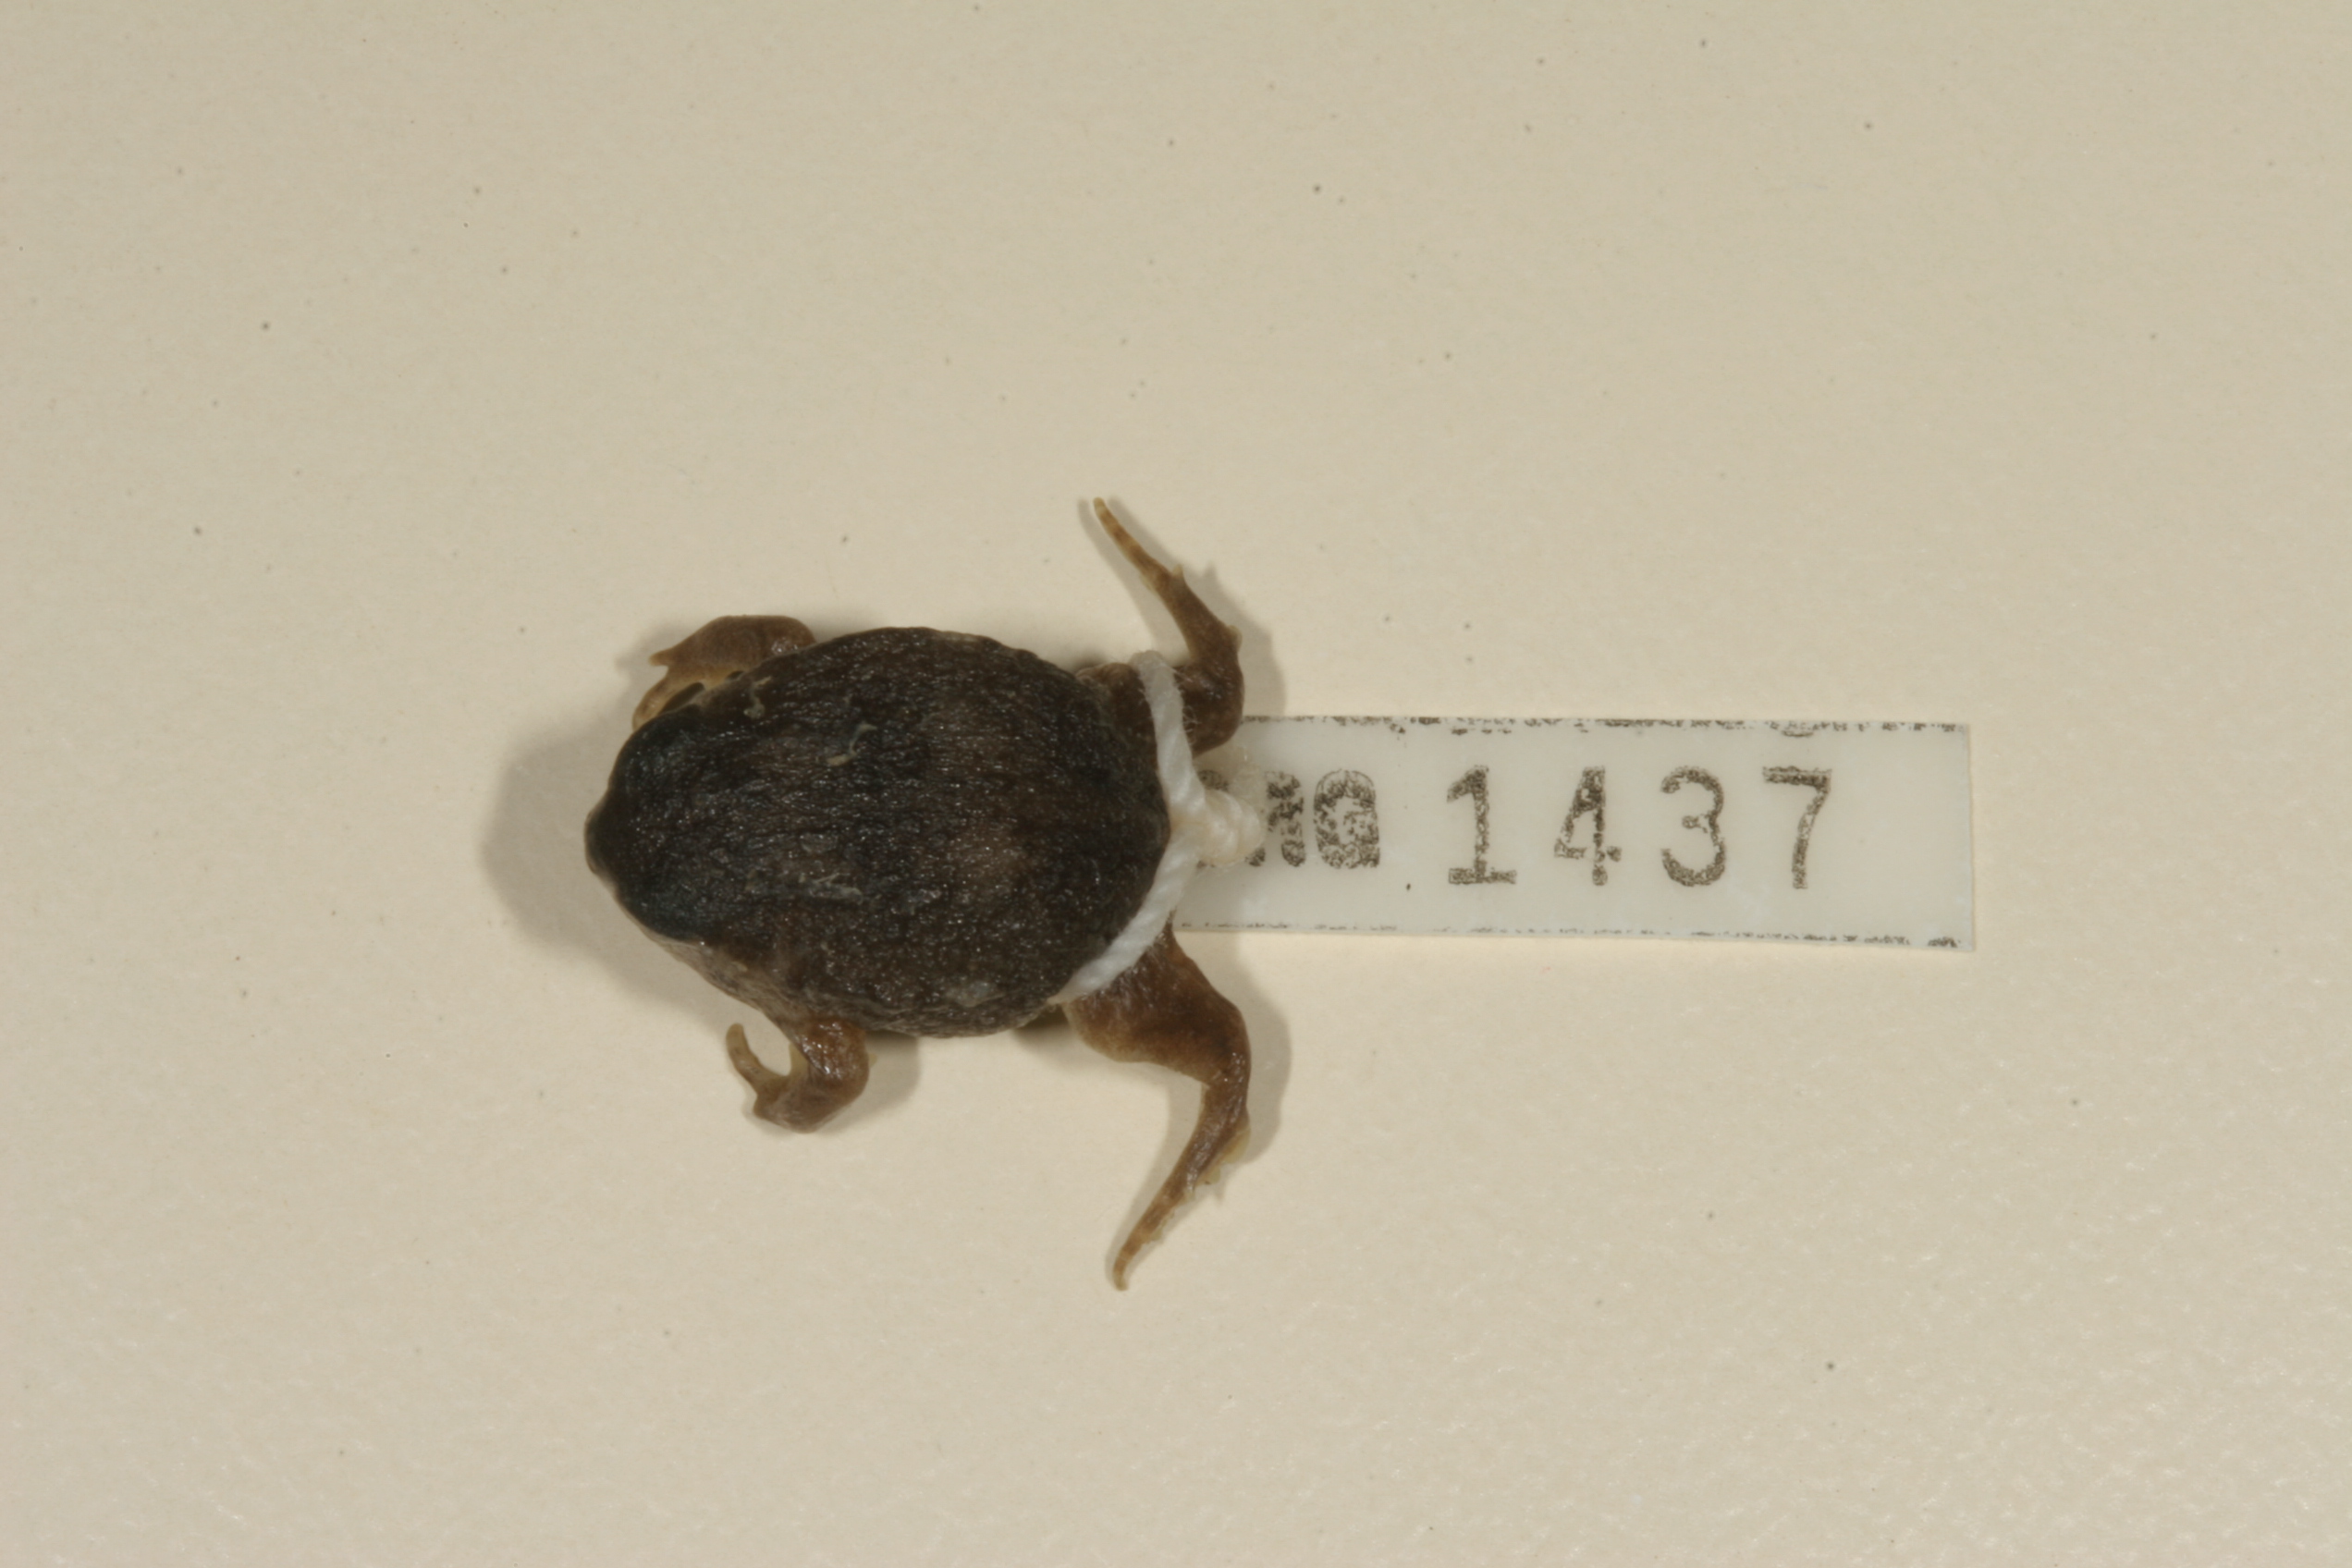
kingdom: Animalia
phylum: Chordata
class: Amphibia
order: Anura
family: Brevicipitidae
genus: Breviceps
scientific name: Breviceps adspersus
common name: Common rain frog
